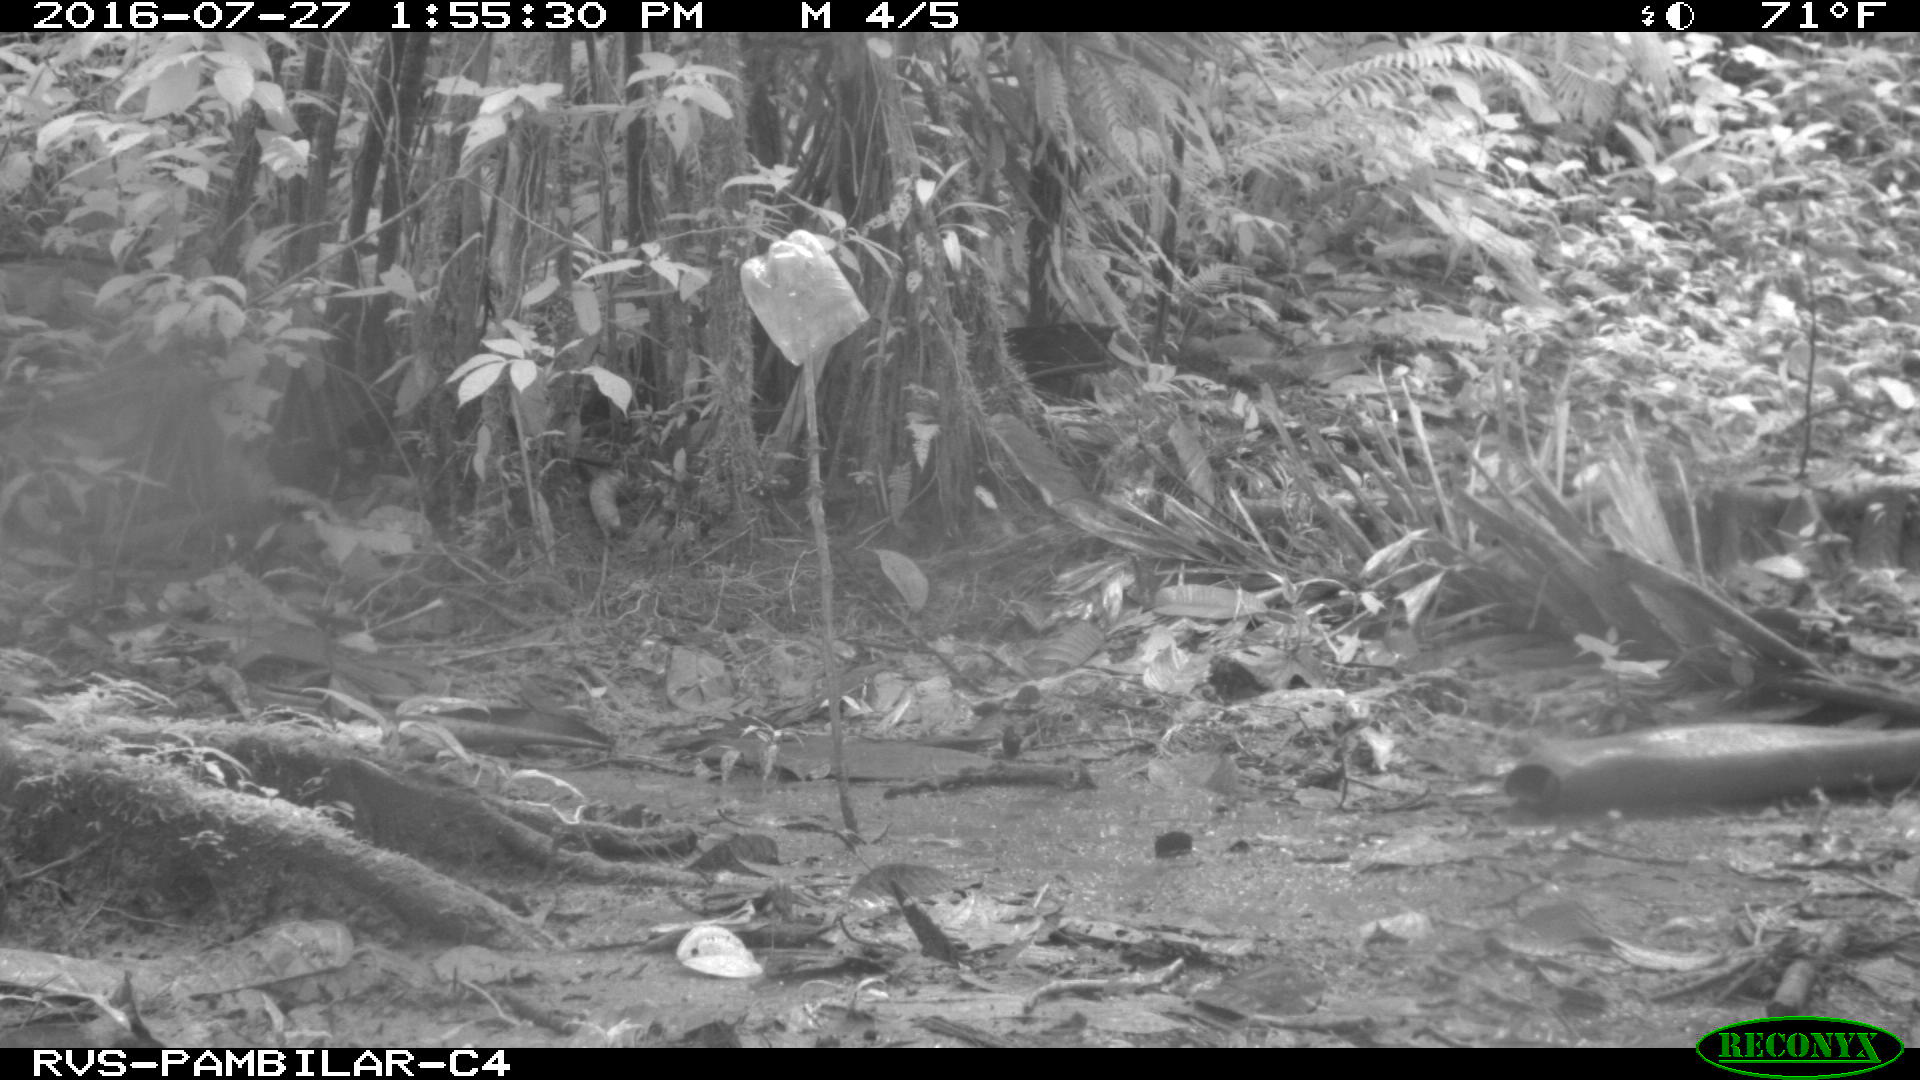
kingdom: Animalia
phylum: Chordata
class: Mammalia
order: Rodentia
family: Dasyproctidae
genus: Dasyprocta
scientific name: Dasyprocta punctata
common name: Central american agouti
